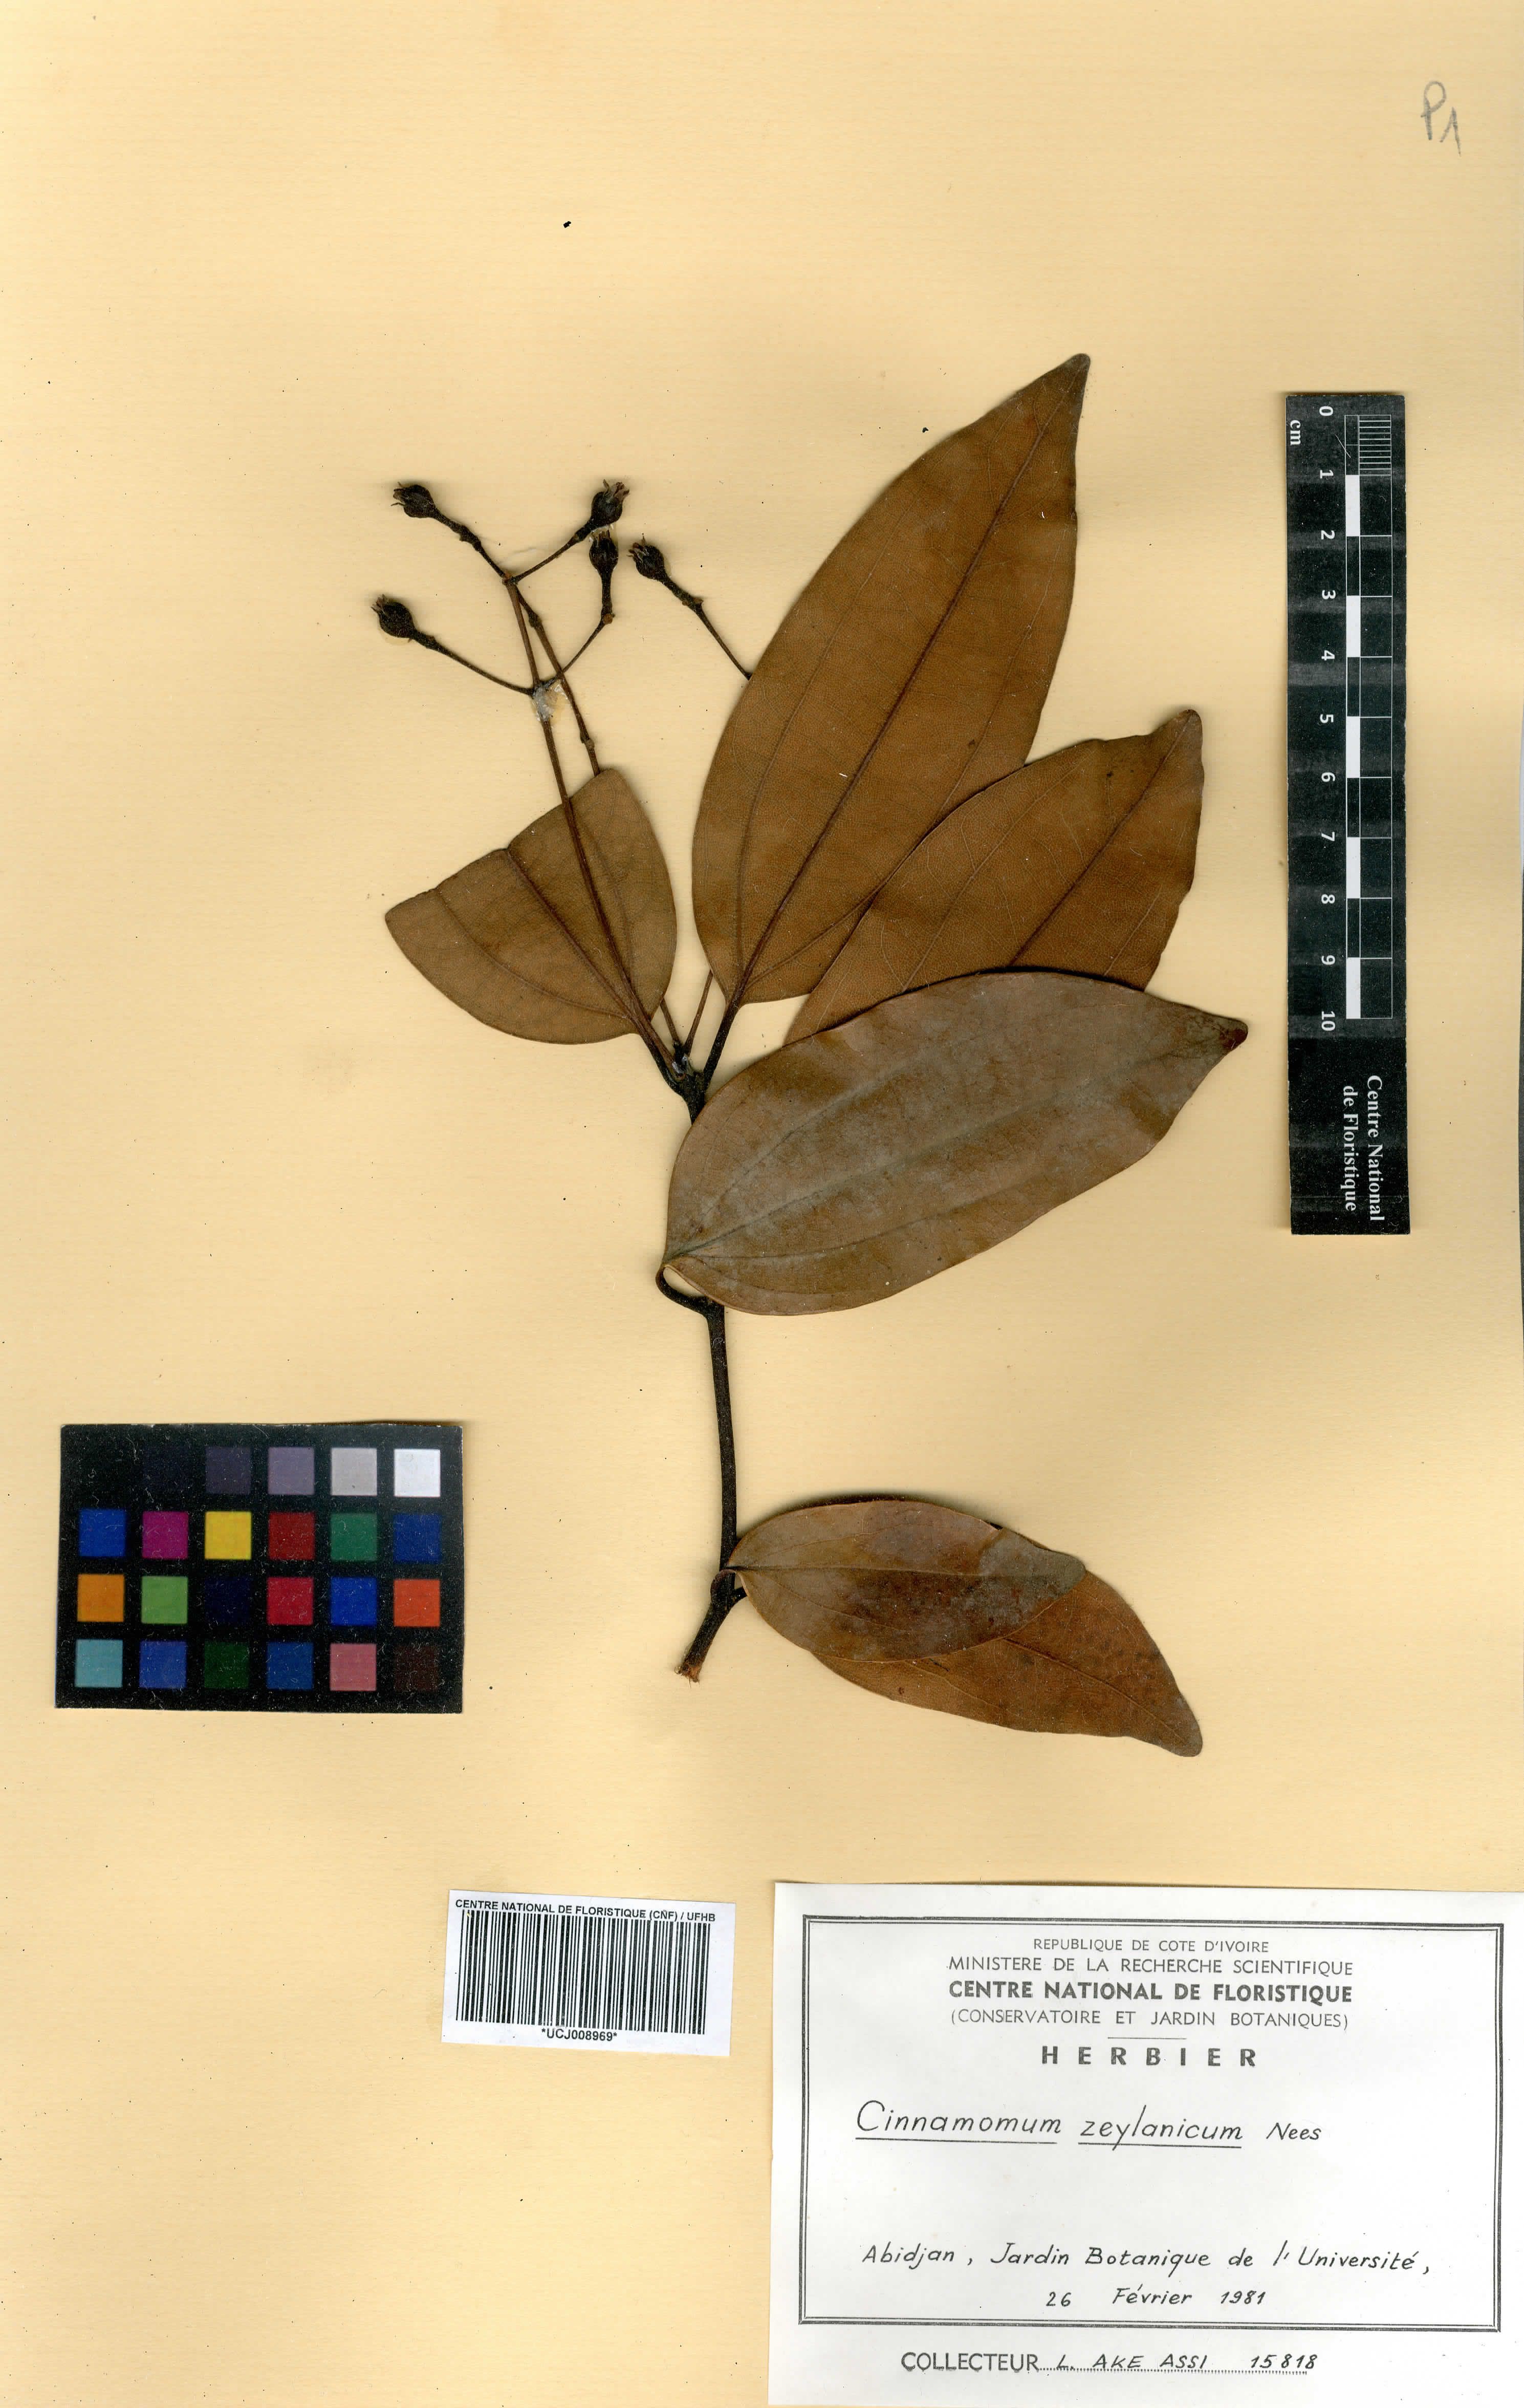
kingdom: Plantae
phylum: Tracheophyta
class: Magnoliopsida
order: Laurales
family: Lauraceae
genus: Cinnamomum
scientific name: Cinnamomum
